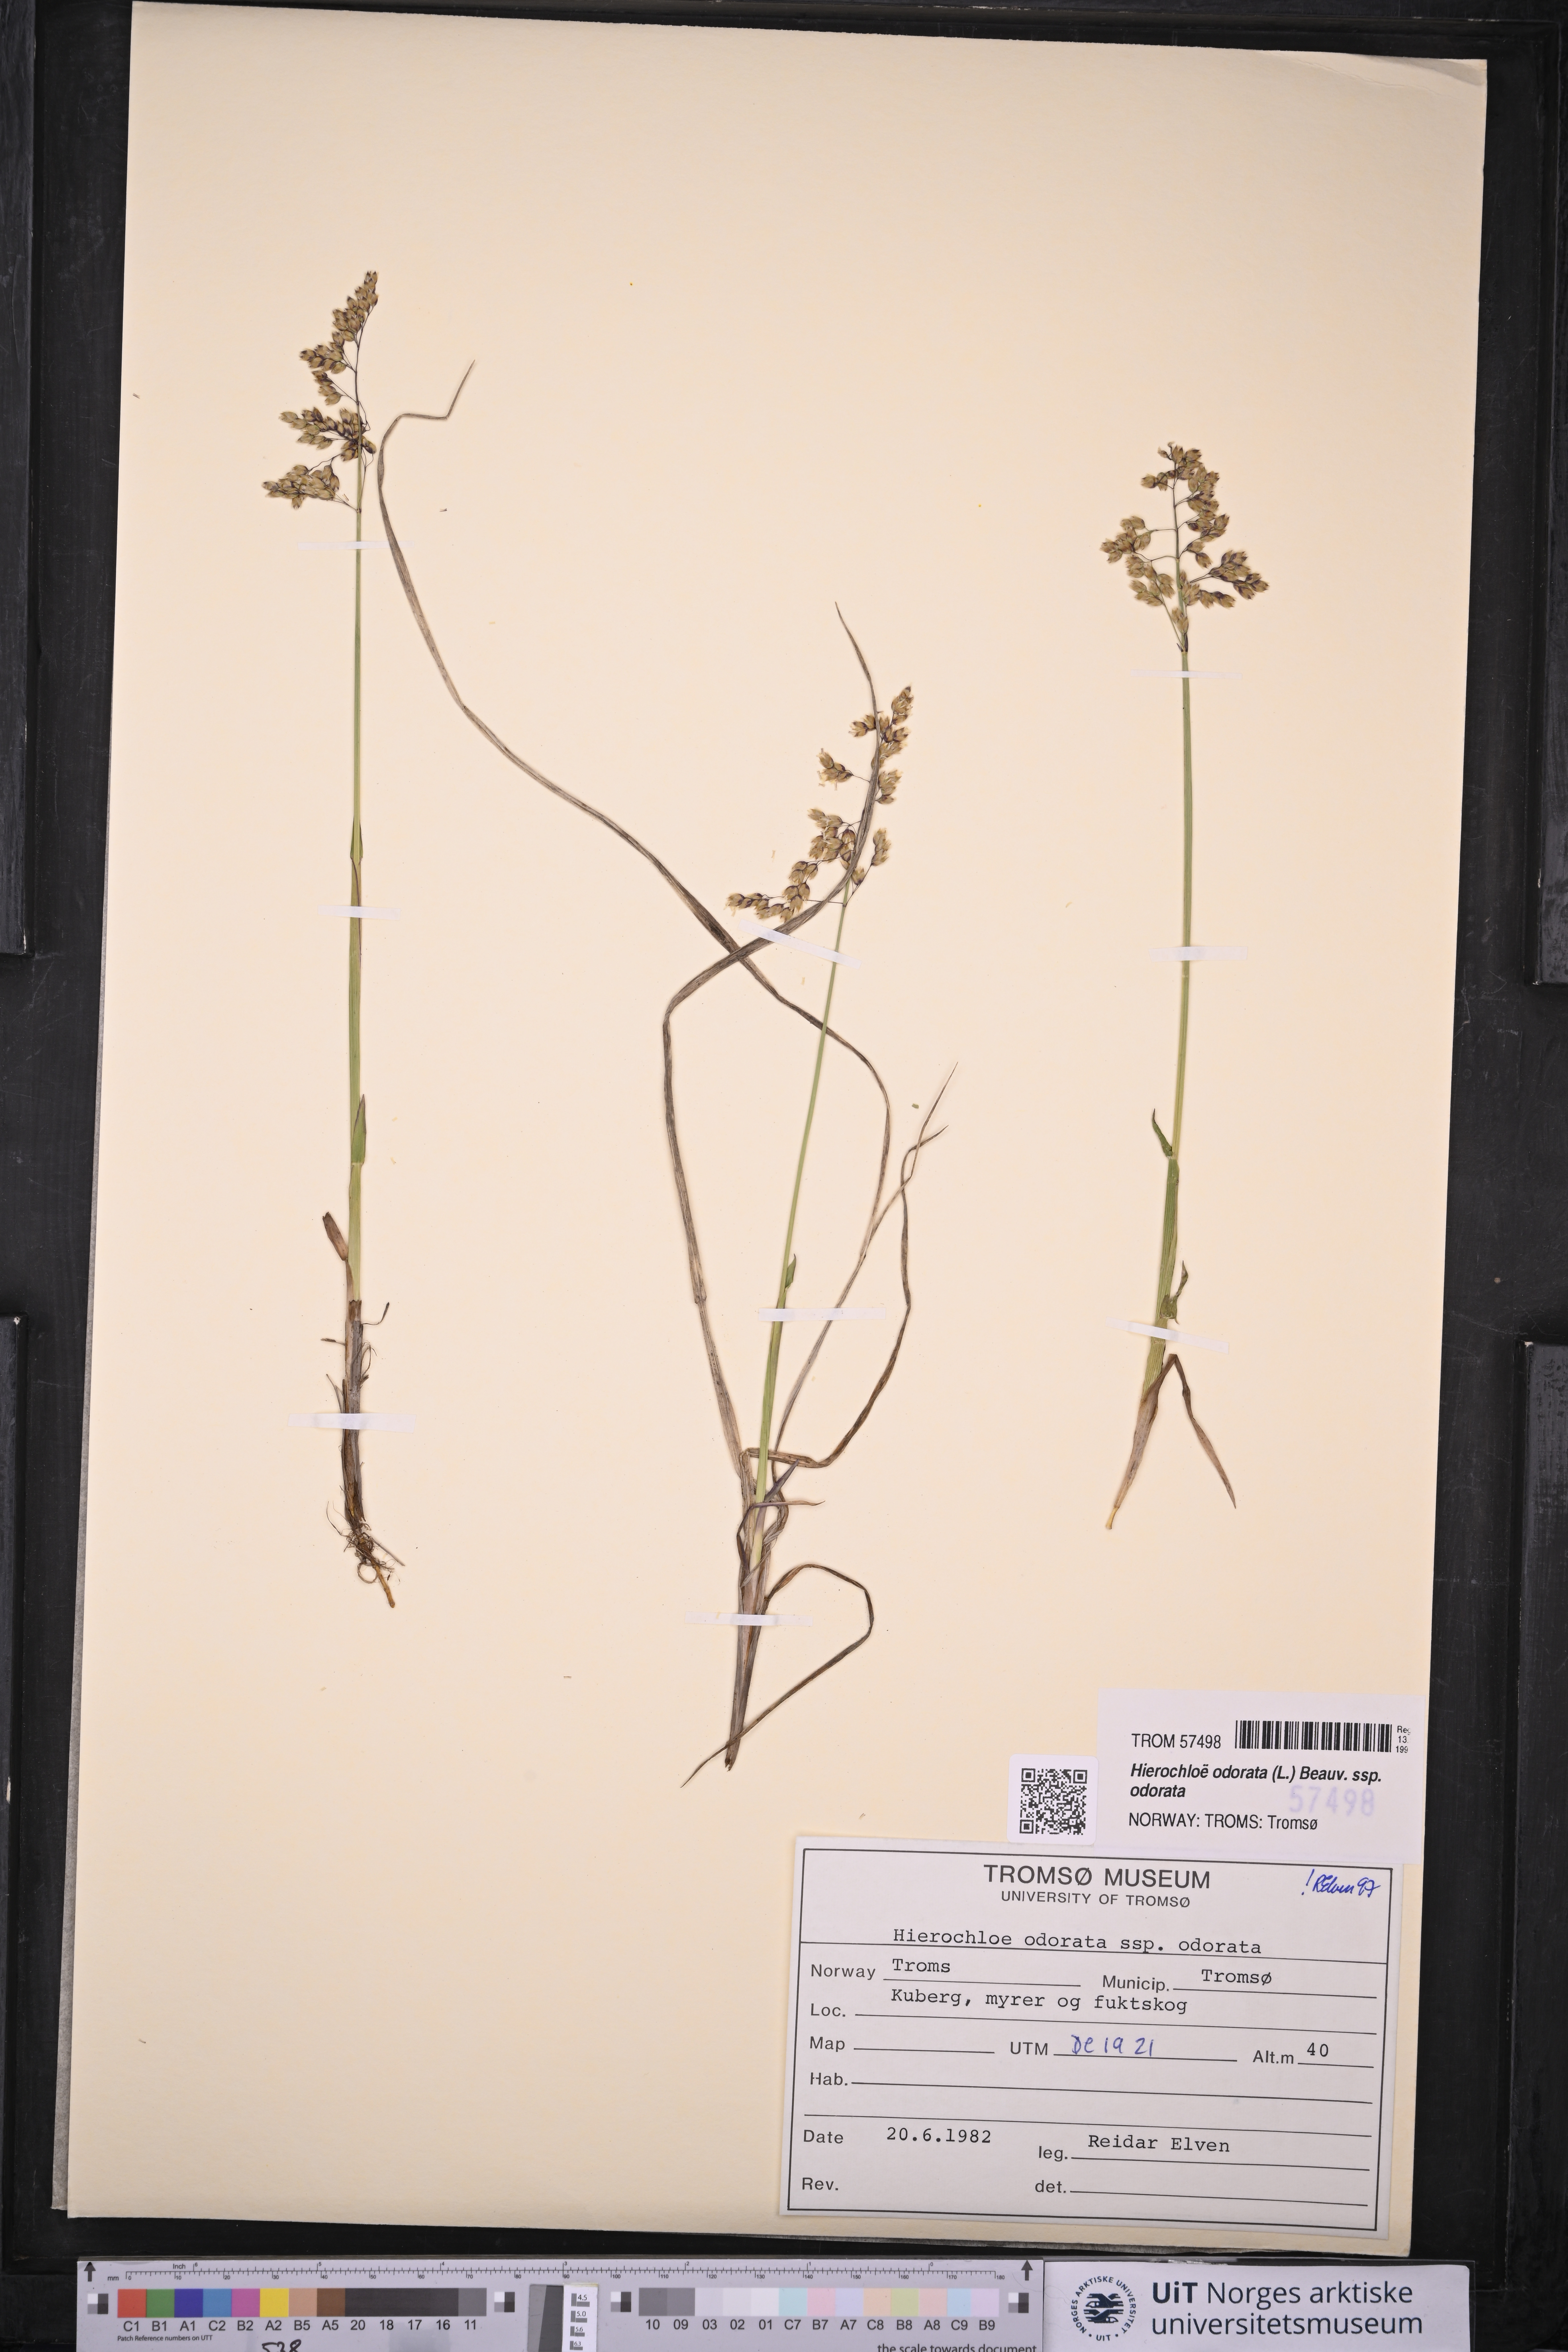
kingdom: Plantae
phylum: Tracheophyta
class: Liliopsida
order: Poales
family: Poaceae
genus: Anthoxanthum
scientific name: Anthoxanthum nitens
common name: Holy grass
